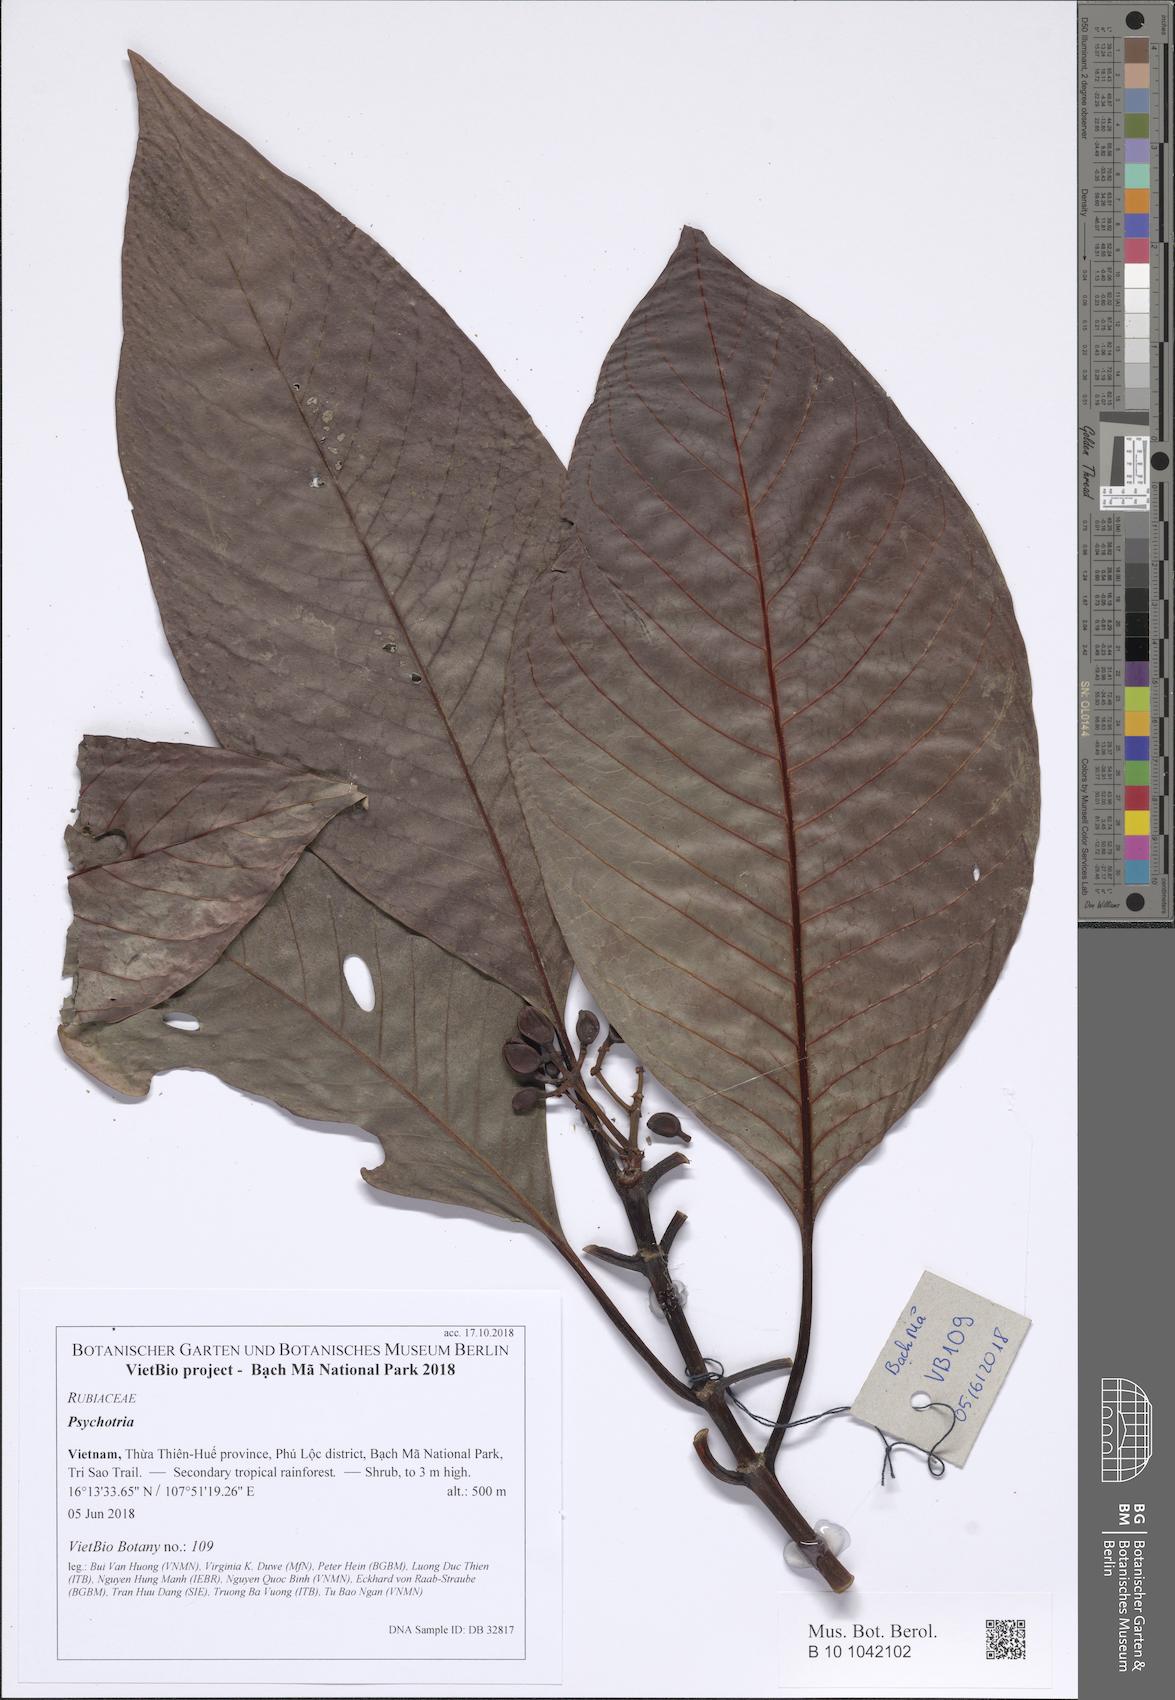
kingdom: Plantae
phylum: Tracheophyta
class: Magnoliopsida
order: Gentianales
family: Rubiaceae
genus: Psychotria
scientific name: Psychotria
